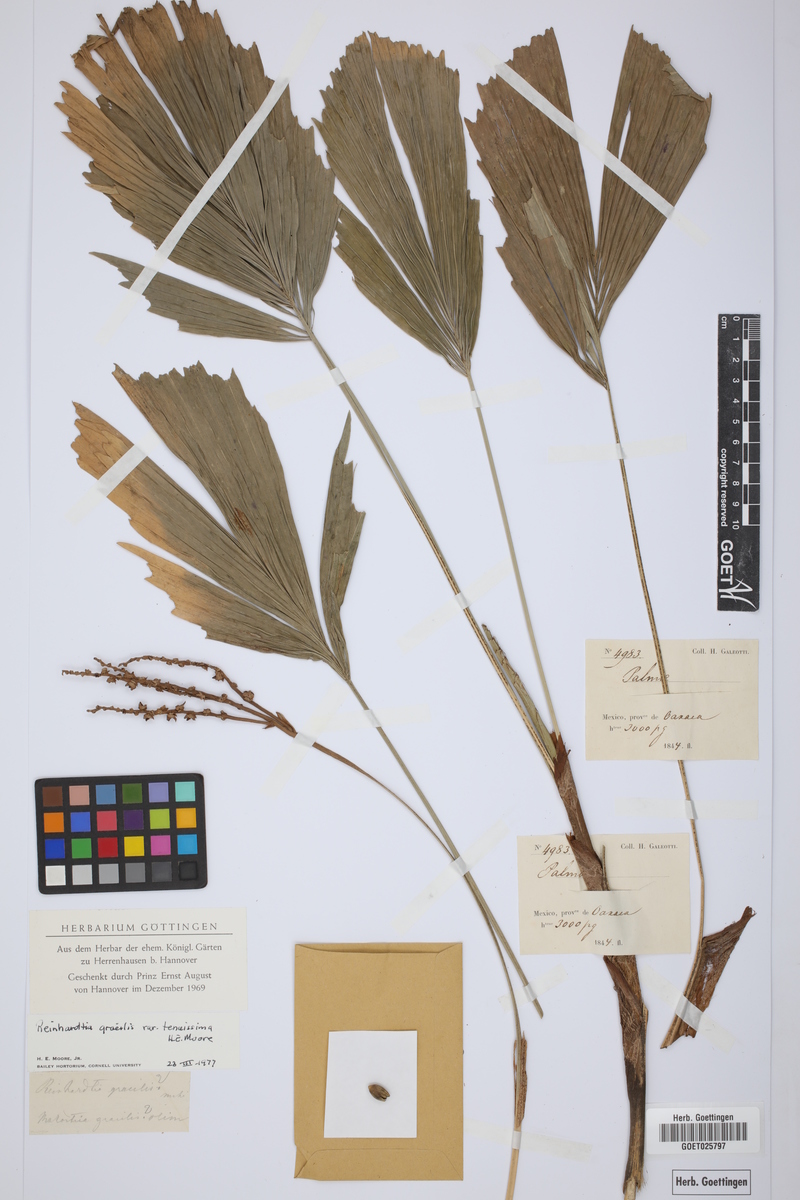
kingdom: Plantae
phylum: Tracheophyta
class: Liliopsida
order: Arecales
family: Arecaceae
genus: Reinhardtia
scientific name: Reinhardtia gracilis
